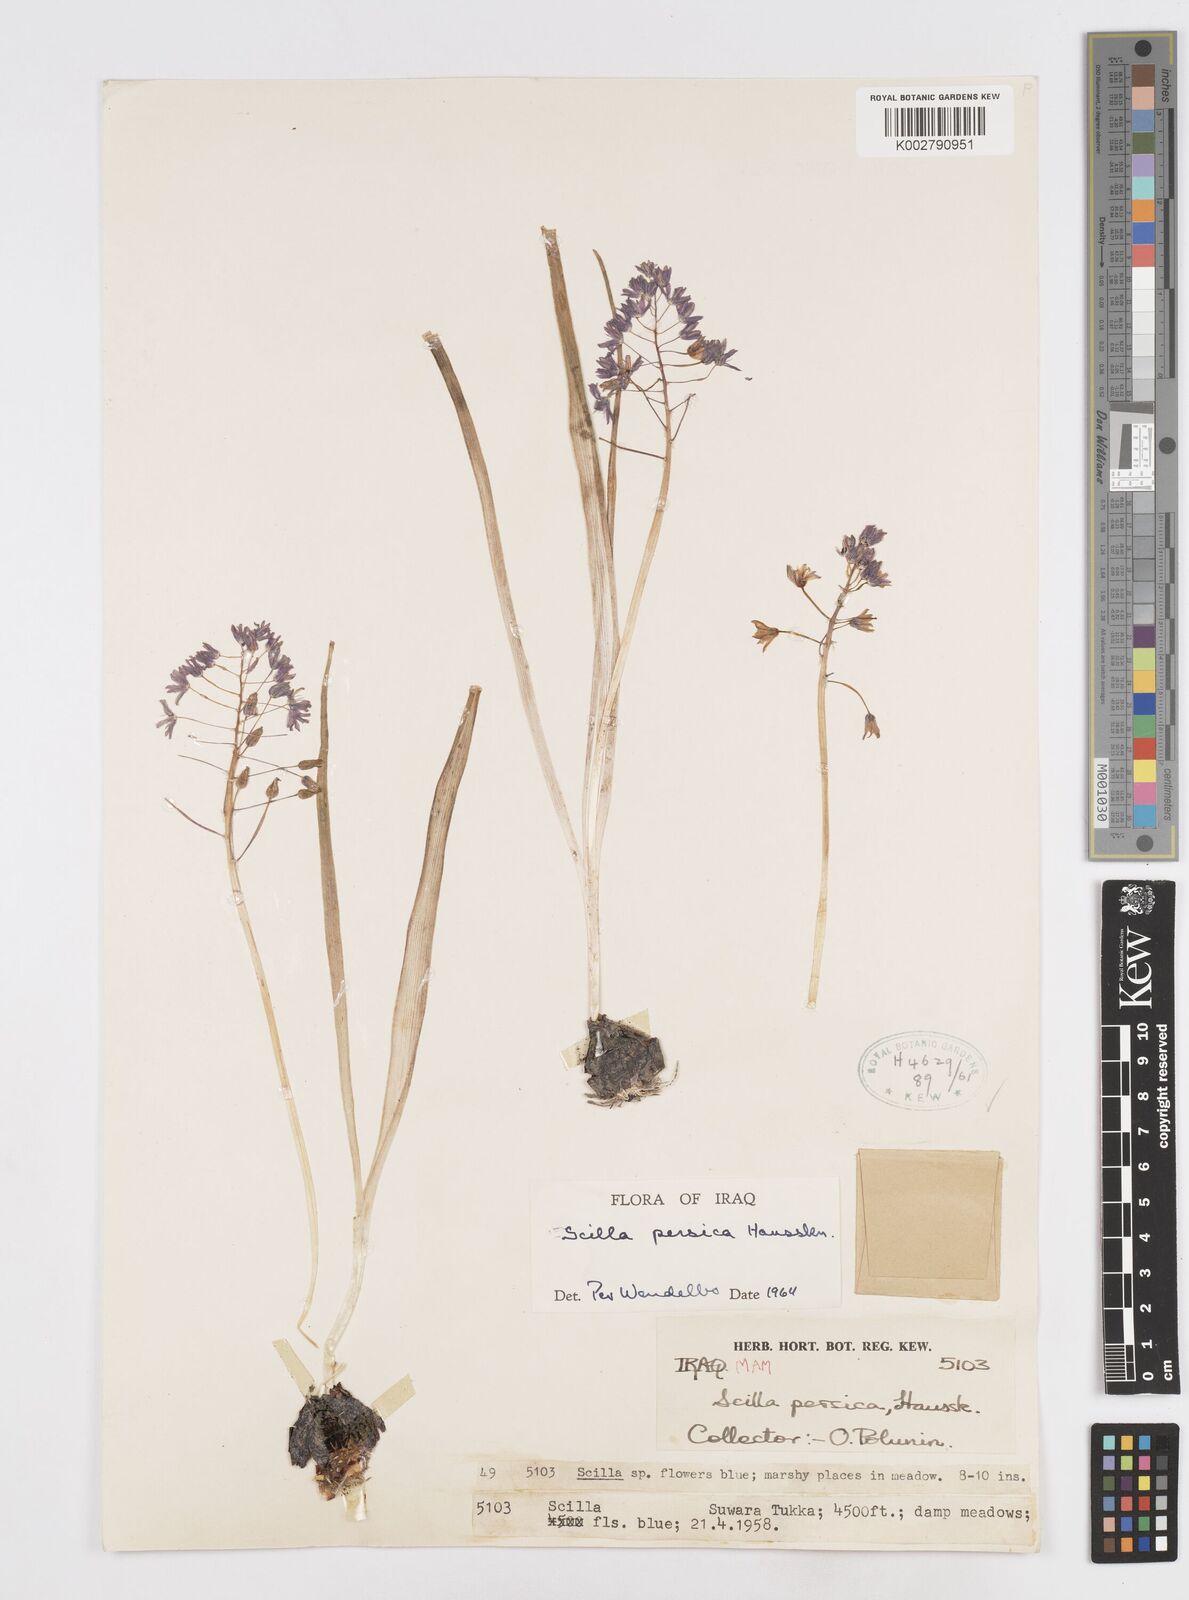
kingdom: Plantae
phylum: Tracheophyta
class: Liliopsida
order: Asparagales
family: Asparagaceae
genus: Zagrosia
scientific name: Zagrosia persica
